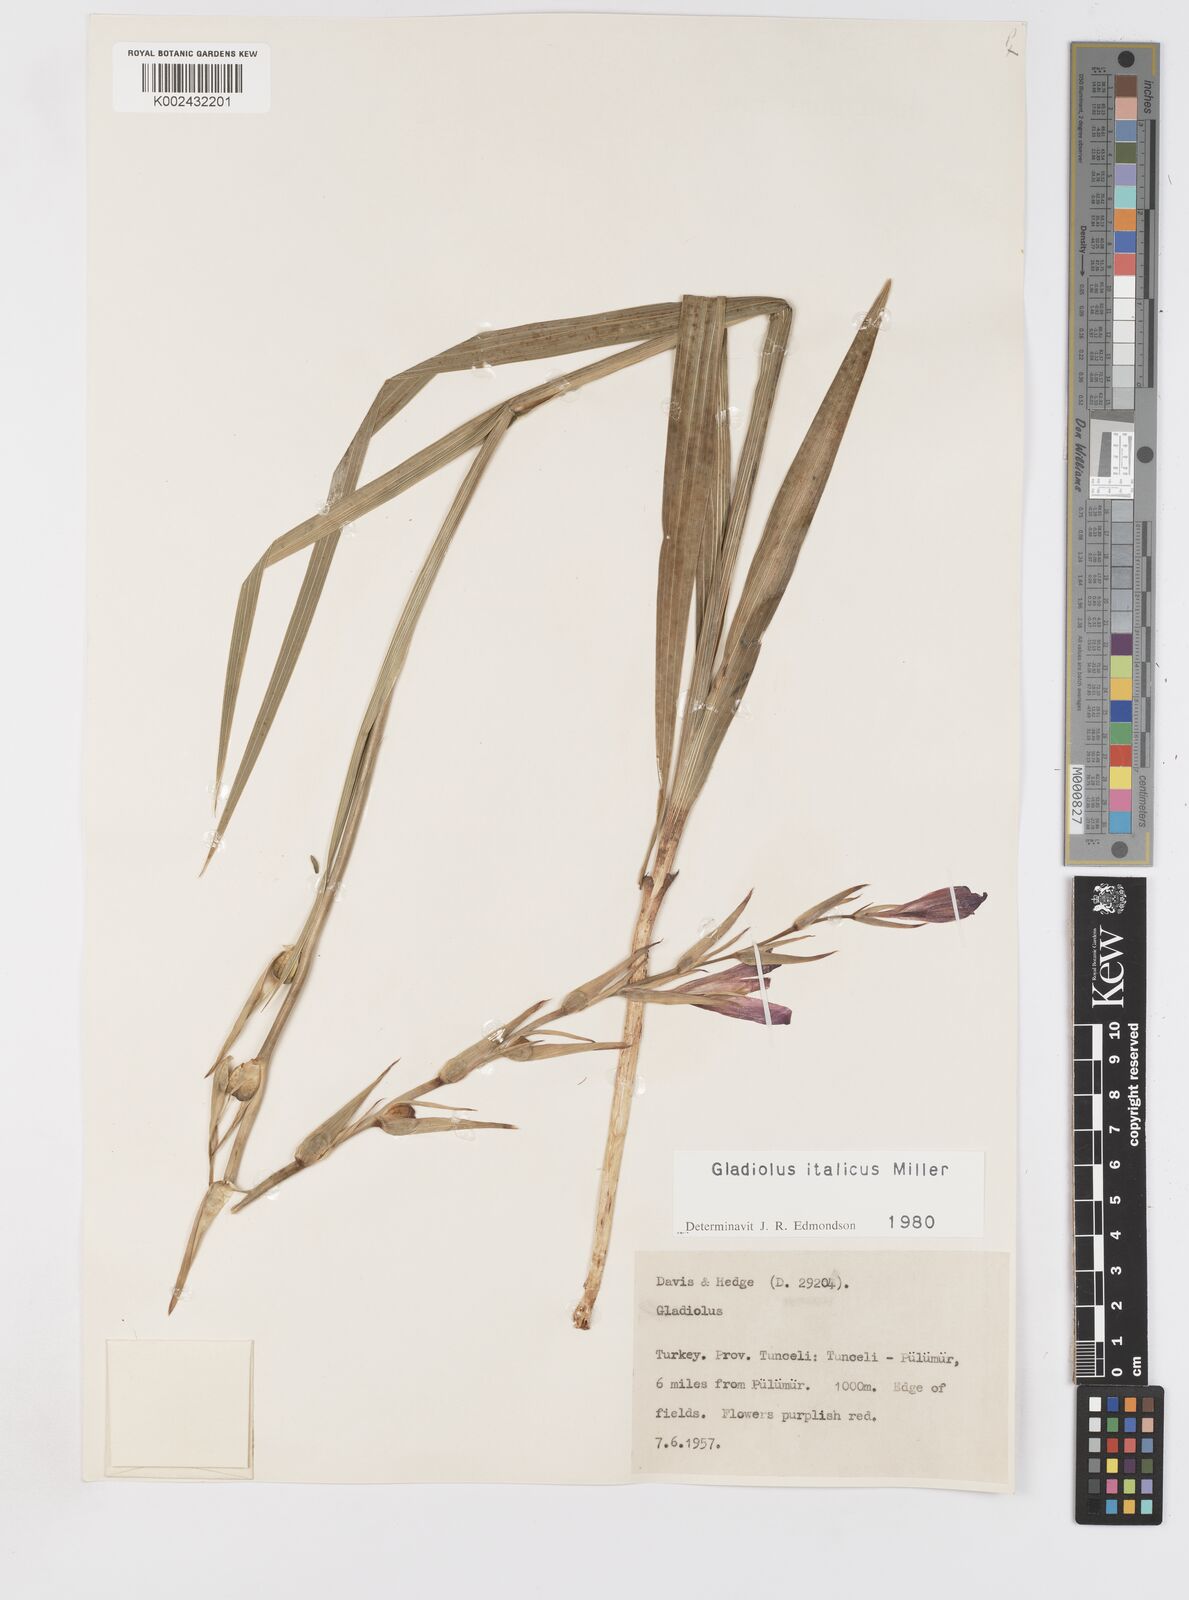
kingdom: Plantae
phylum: Tracheophyta
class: Liliopsida
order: Asparagales
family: Iridaceae
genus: Gladiolus
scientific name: Gladiolus italicus
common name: Field gladiolus
